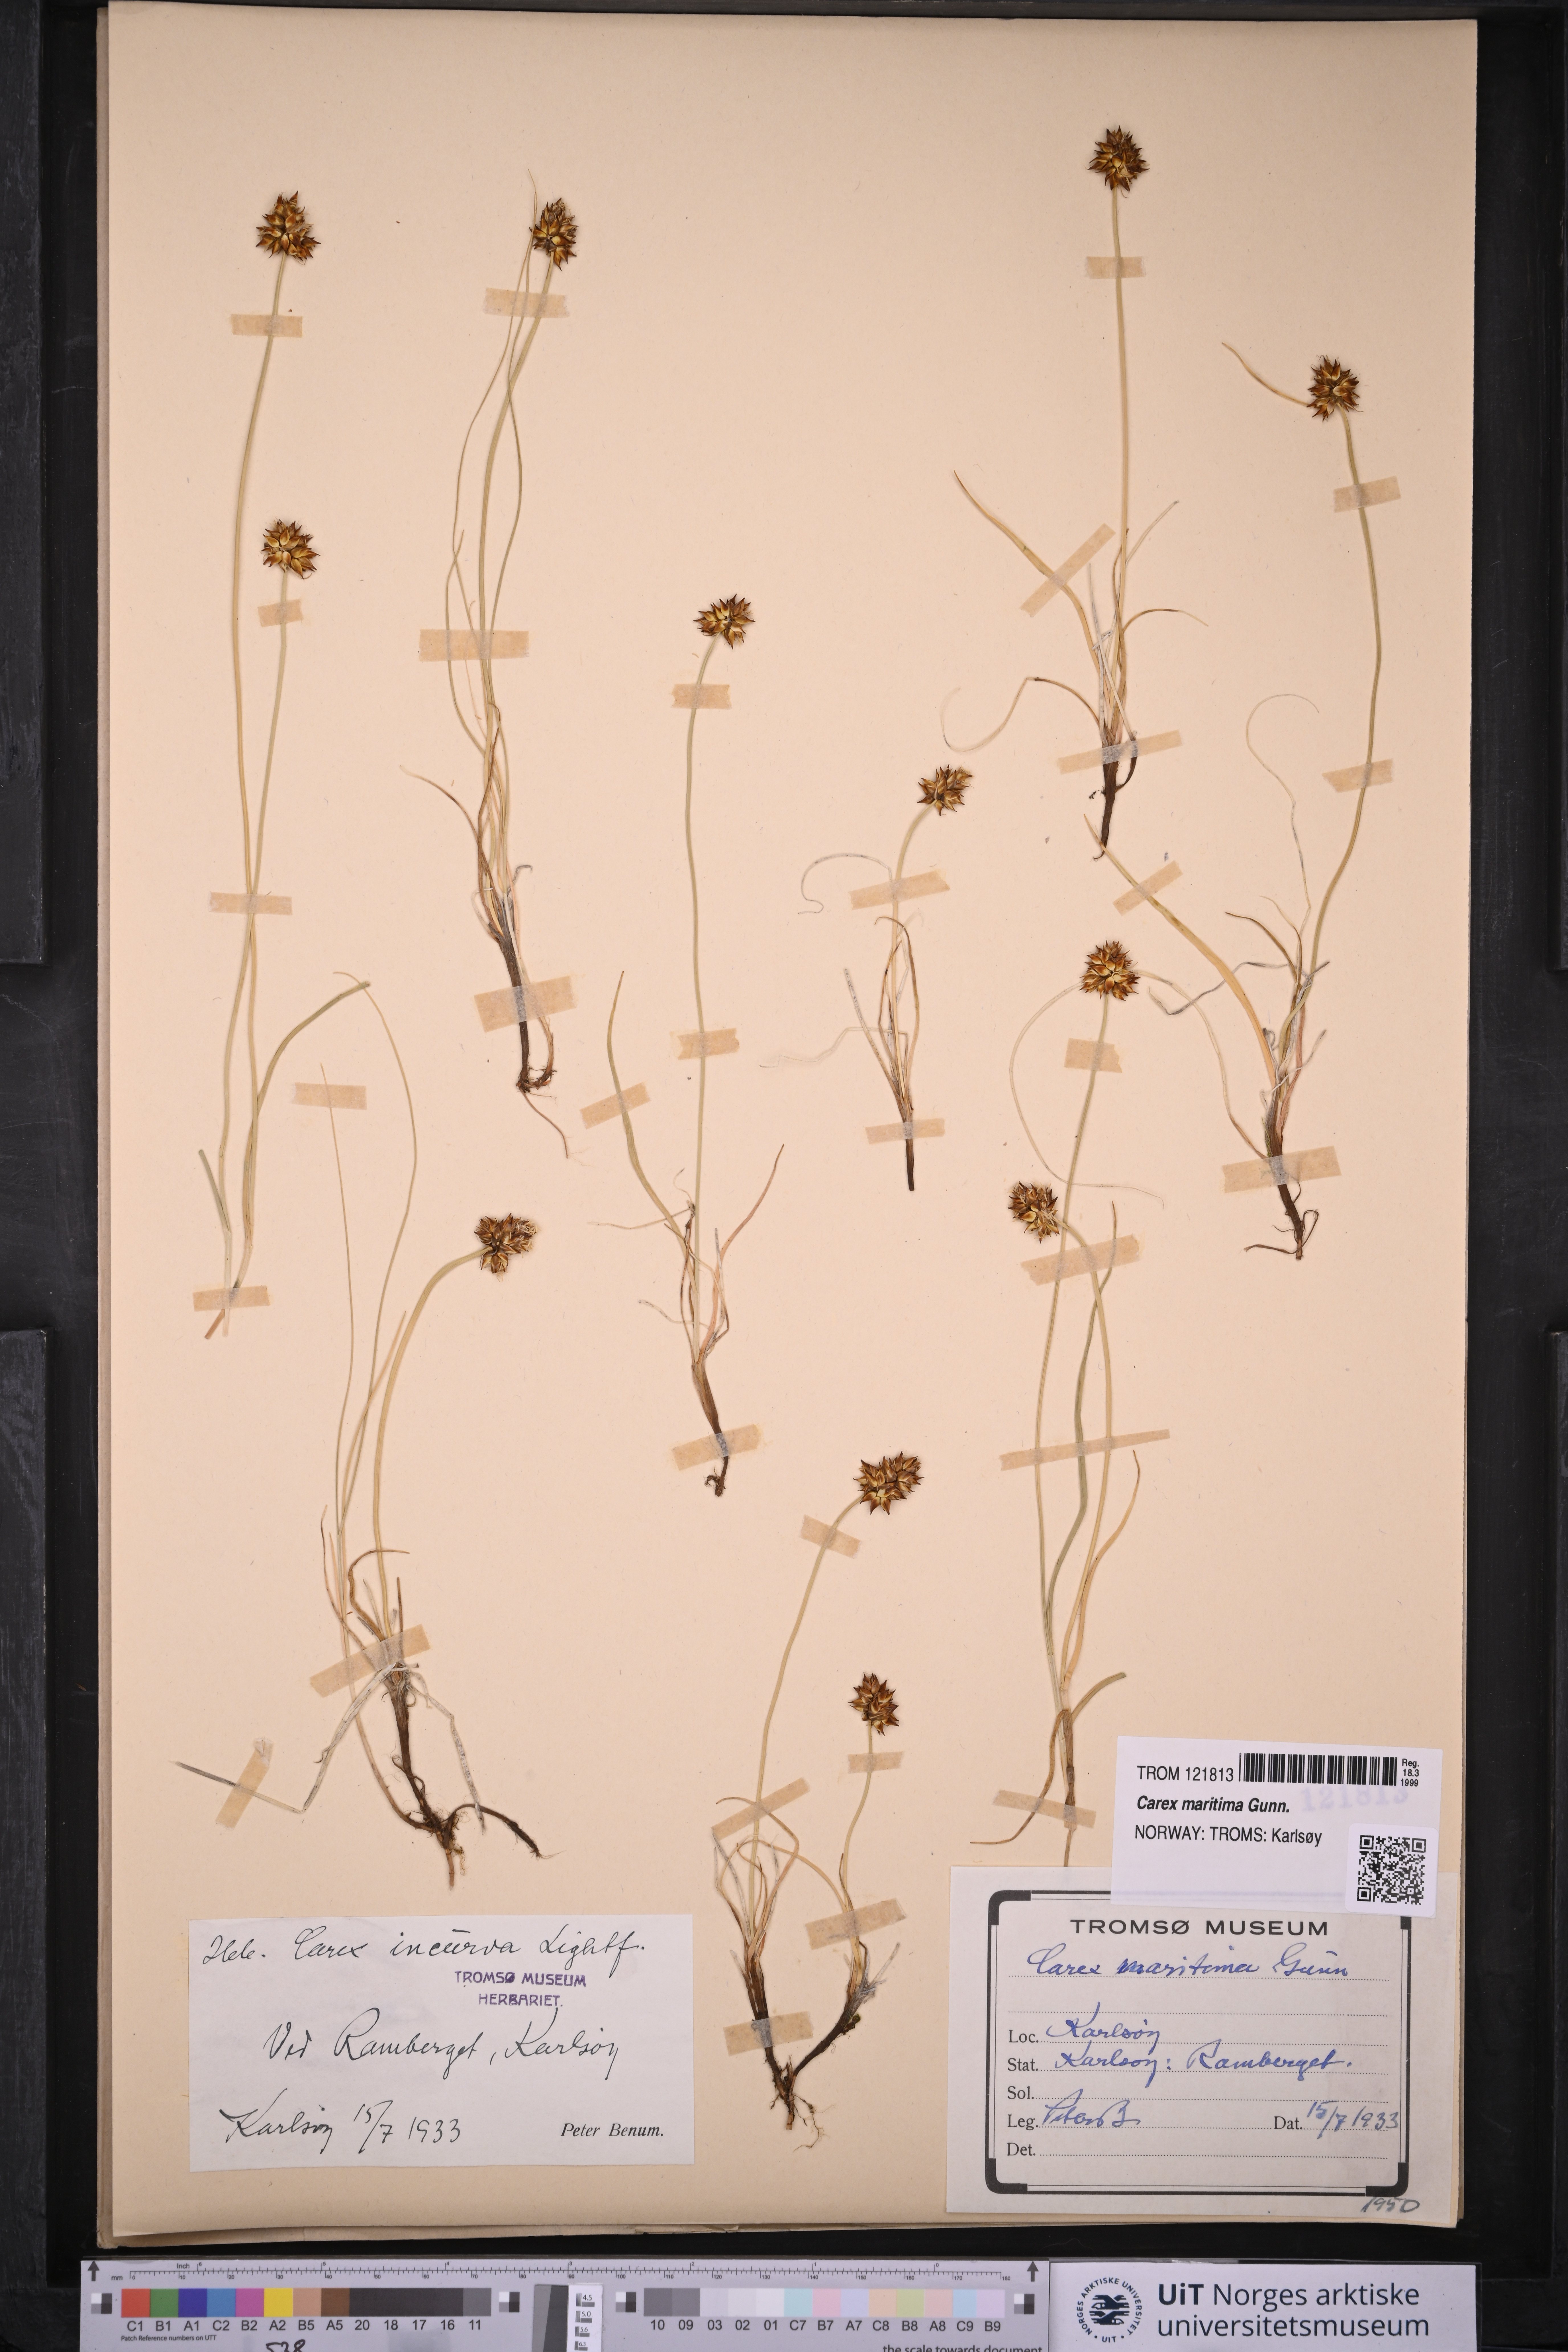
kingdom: Plantae
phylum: Tracheophyta
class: Liliopsida
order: Poales
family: Cyperaceae
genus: Carex
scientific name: Carex maritima
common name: Curved sedge
